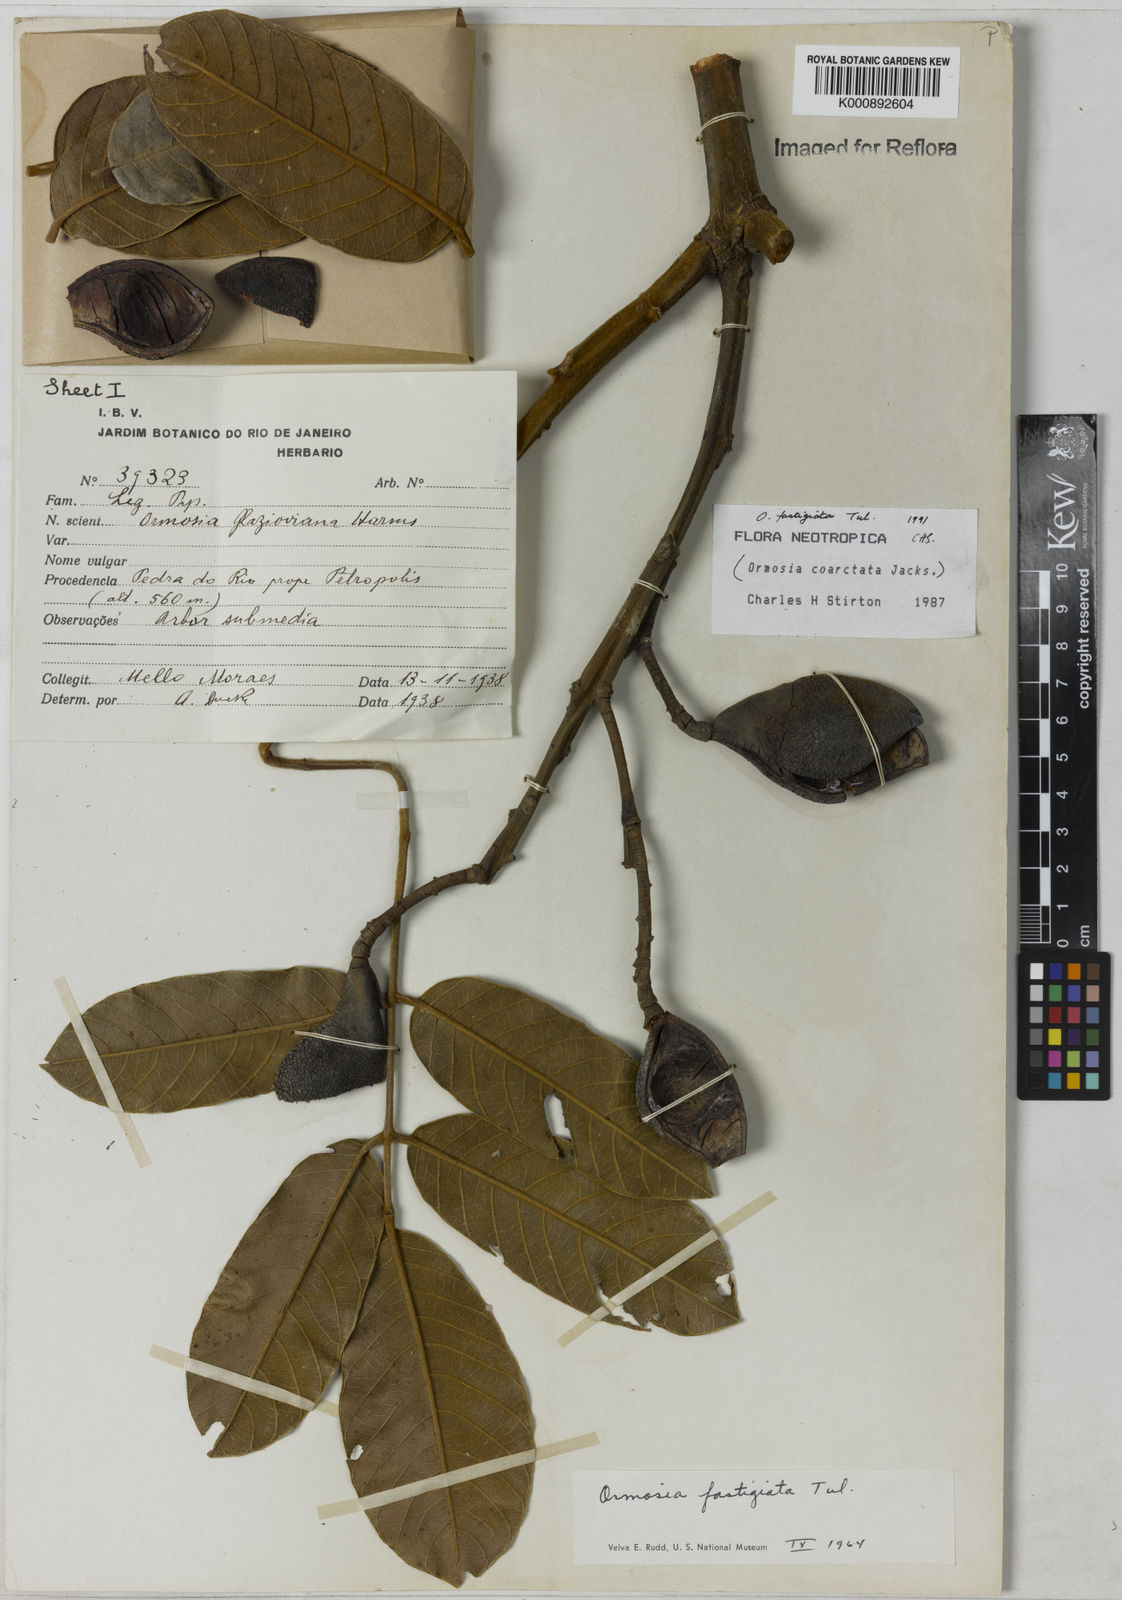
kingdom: Plantae
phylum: Tracheophyta
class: Magnoliopsida
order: Fabales
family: Fabaceae
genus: Ormosia
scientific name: Ormosia fastigiata
